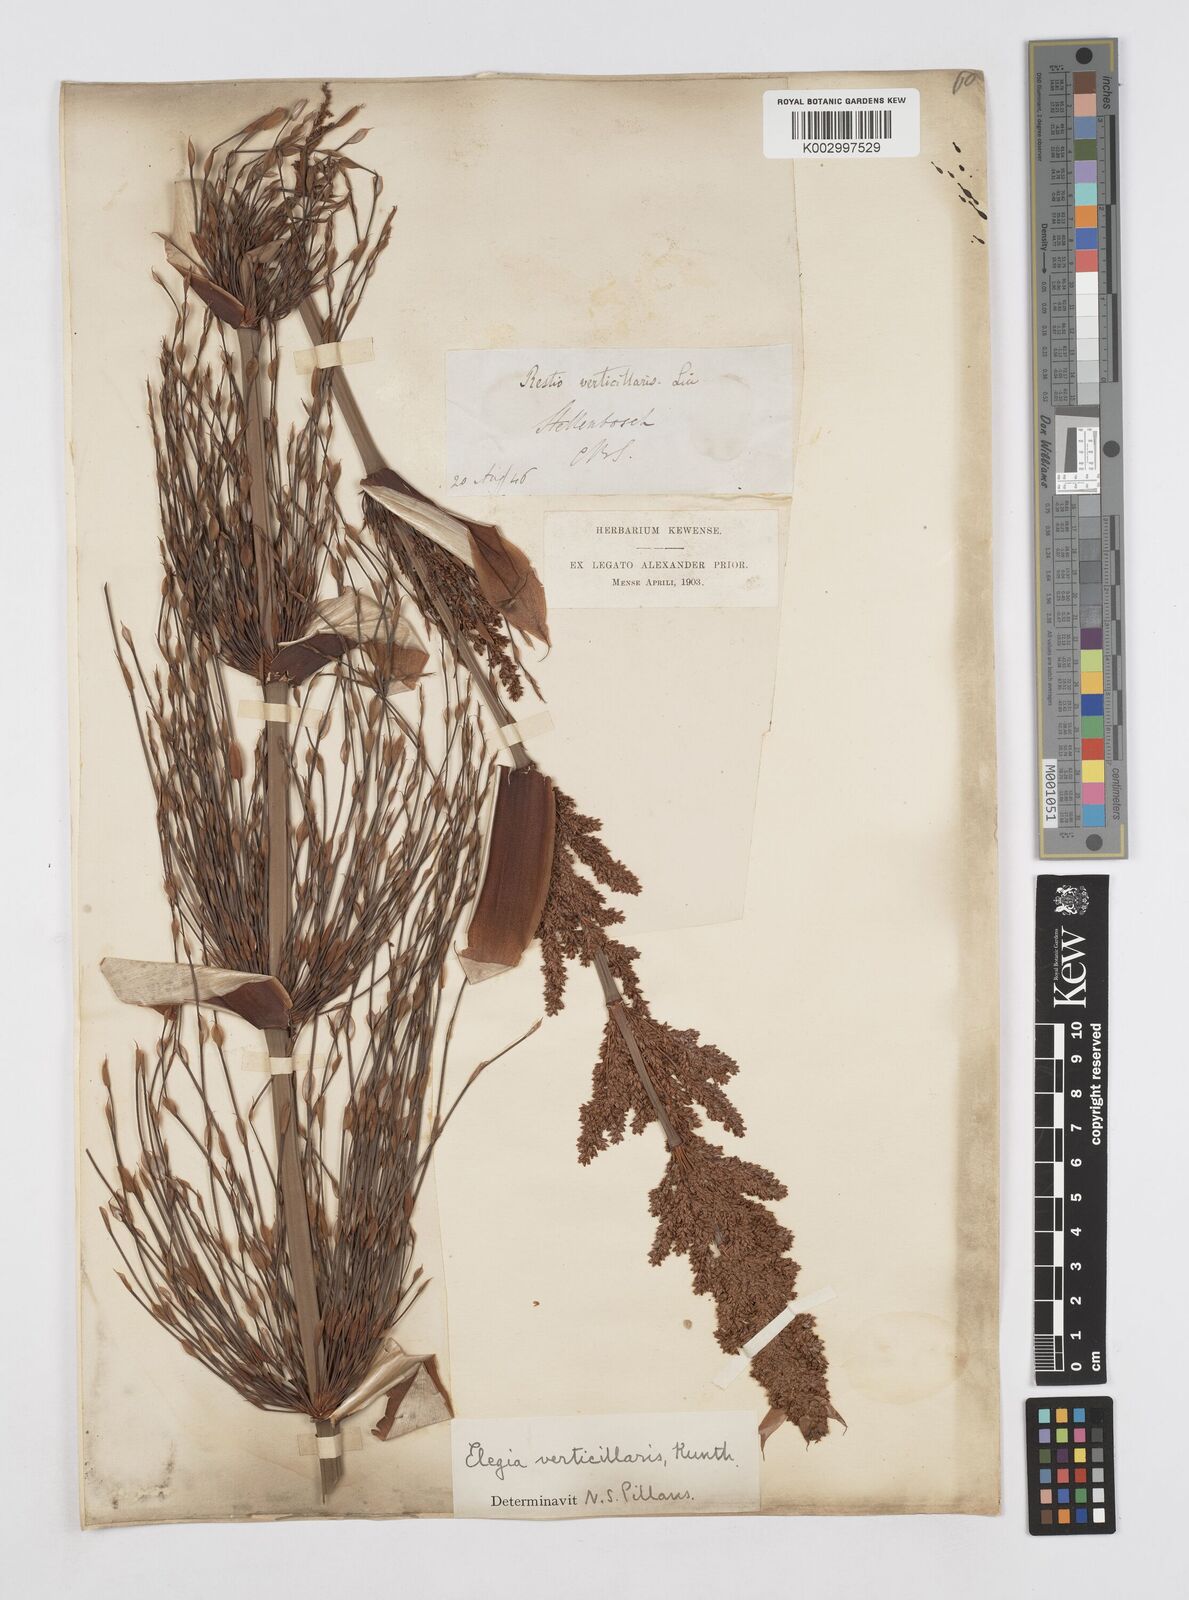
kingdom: Plantae
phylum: Tracheophyta
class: Liliopsida
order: Poales
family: Restionaceae
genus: Elegia
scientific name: Elegia capensis
